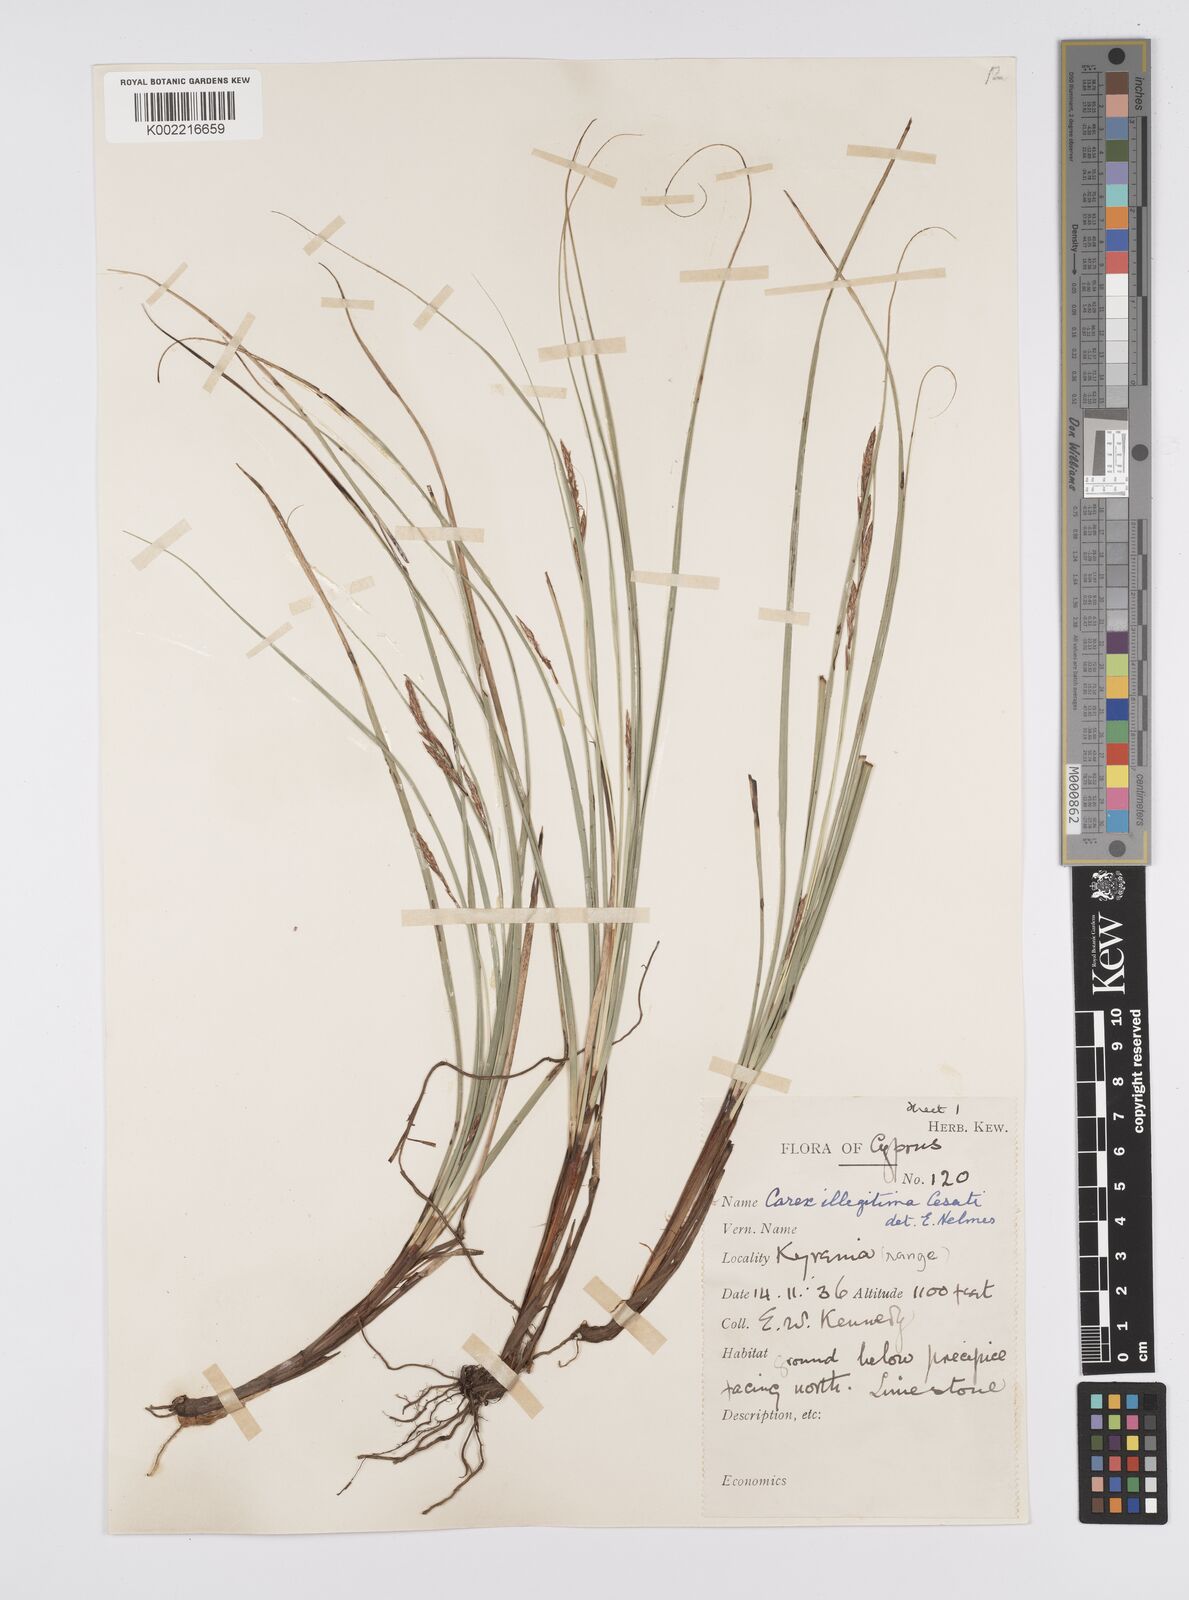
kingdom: Plantae
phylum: Tracheophyta
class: Liliopsida
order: Poales
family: Cyperaceae
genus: Carex
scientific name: Carex illegitima
